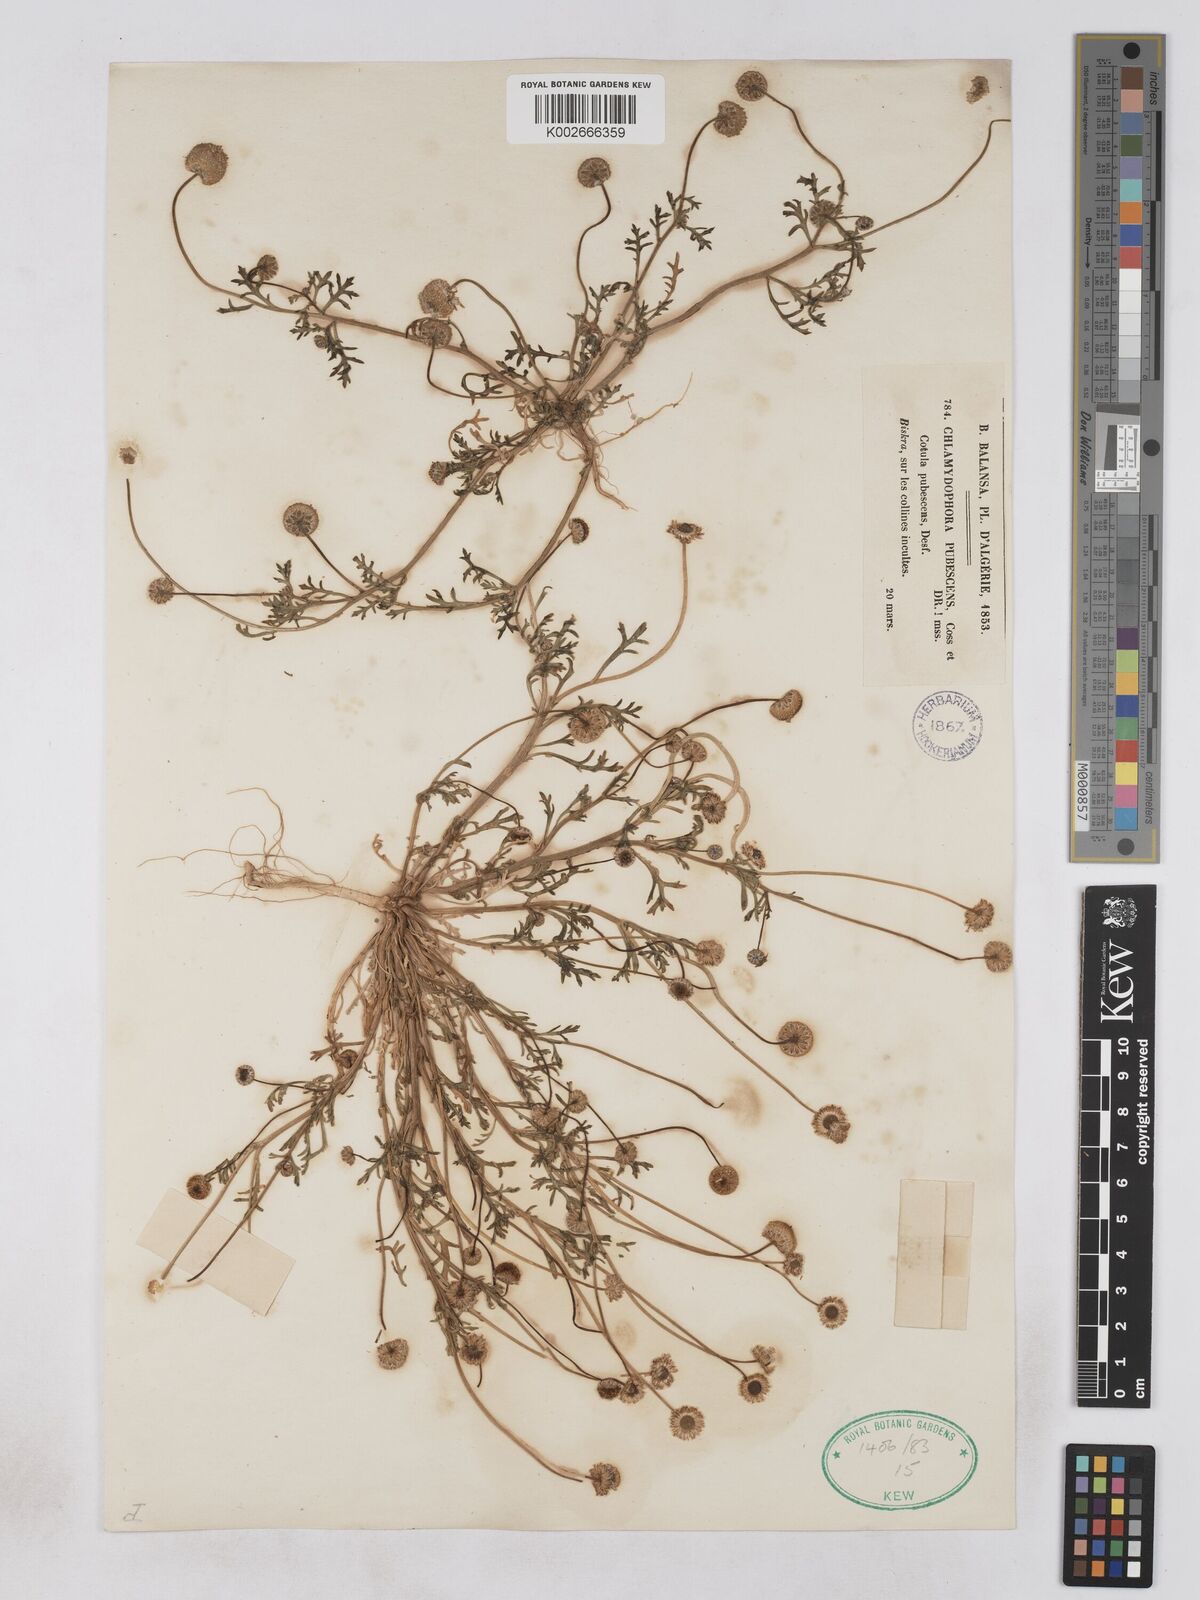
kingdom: Plantae
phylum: Tracheophyta
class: Magnoliopsida
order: Asterales
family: Asteraceae
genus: Otoglyphis
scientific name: Otoglyphis pubescens
